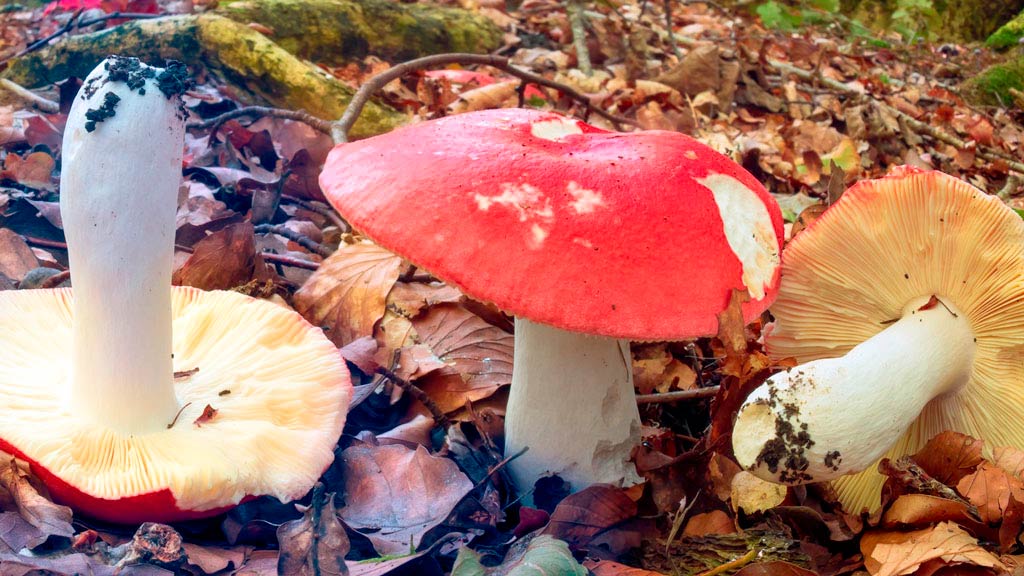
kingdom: Fungi
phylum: Basidiomycota
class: Agaricomycetes
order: Russulales
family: Russulaceae
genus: Russula
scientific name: Russula pseudointegra
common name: cinnoberrød skørhat
